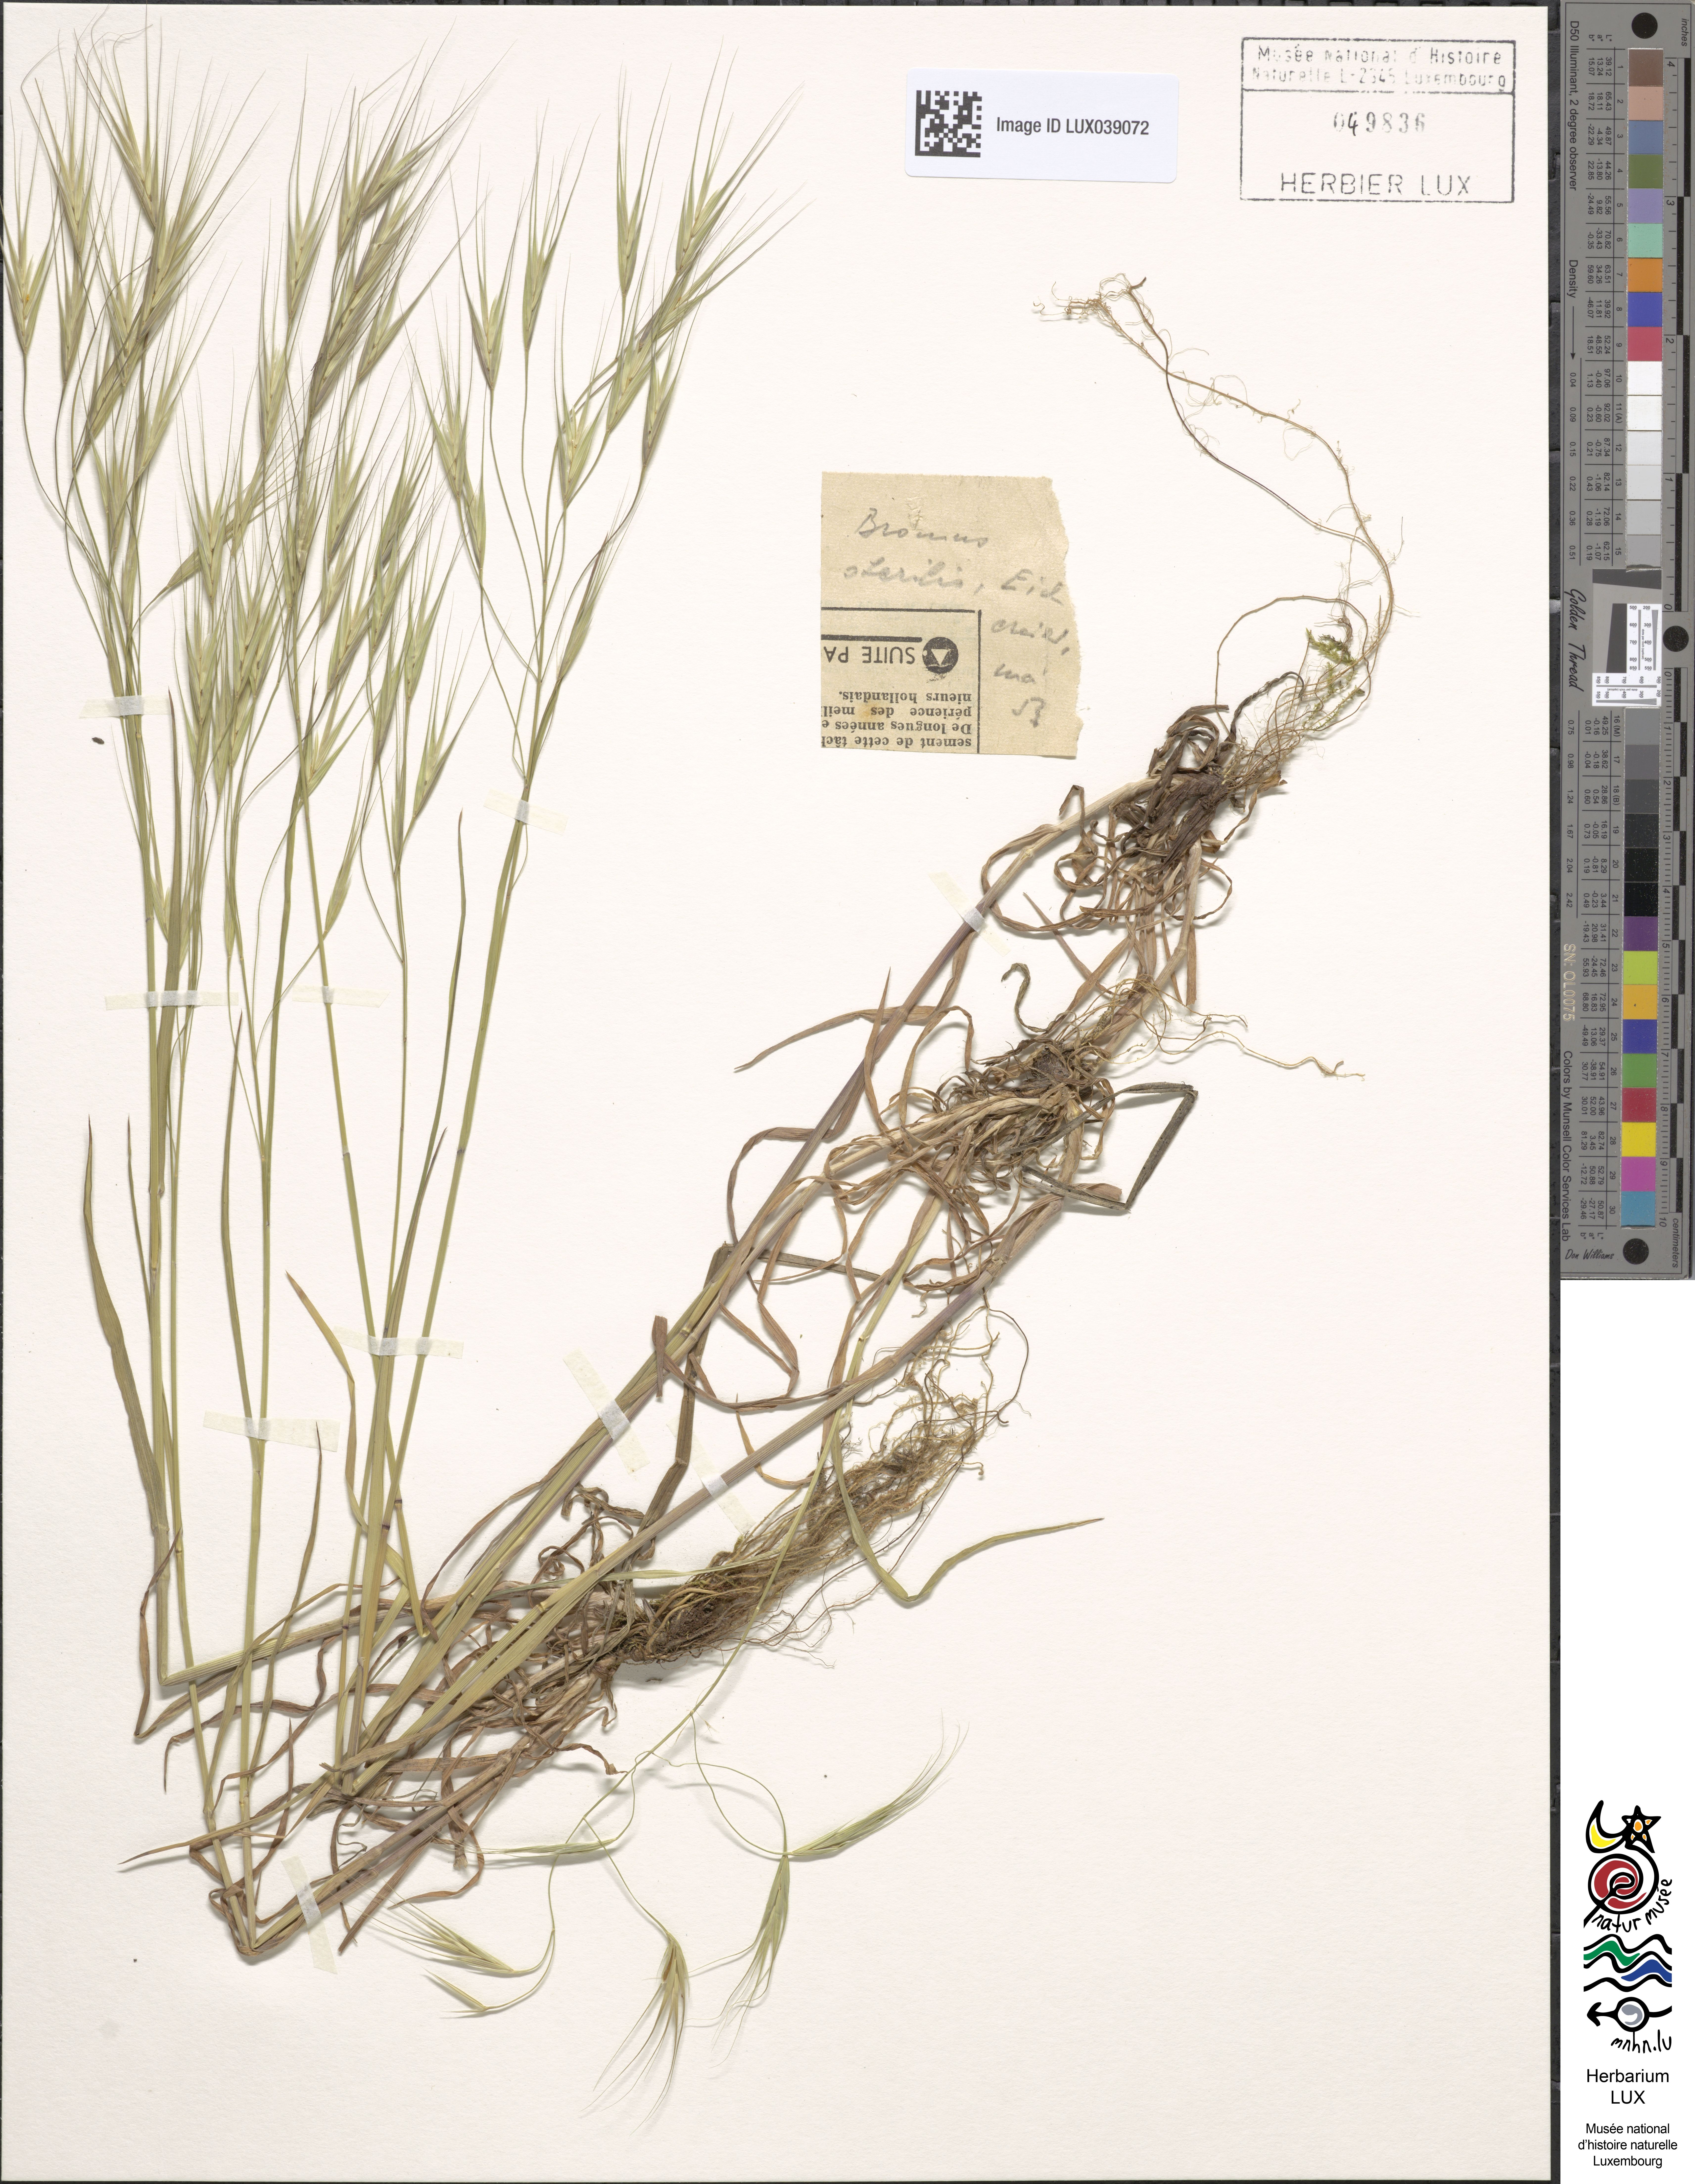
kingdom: Plantae
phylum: Tracheophyta
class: Liliopsida
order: Poales
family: Poaceae
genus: Bromus
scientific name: Bromus sterilis
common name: Poverty brome
